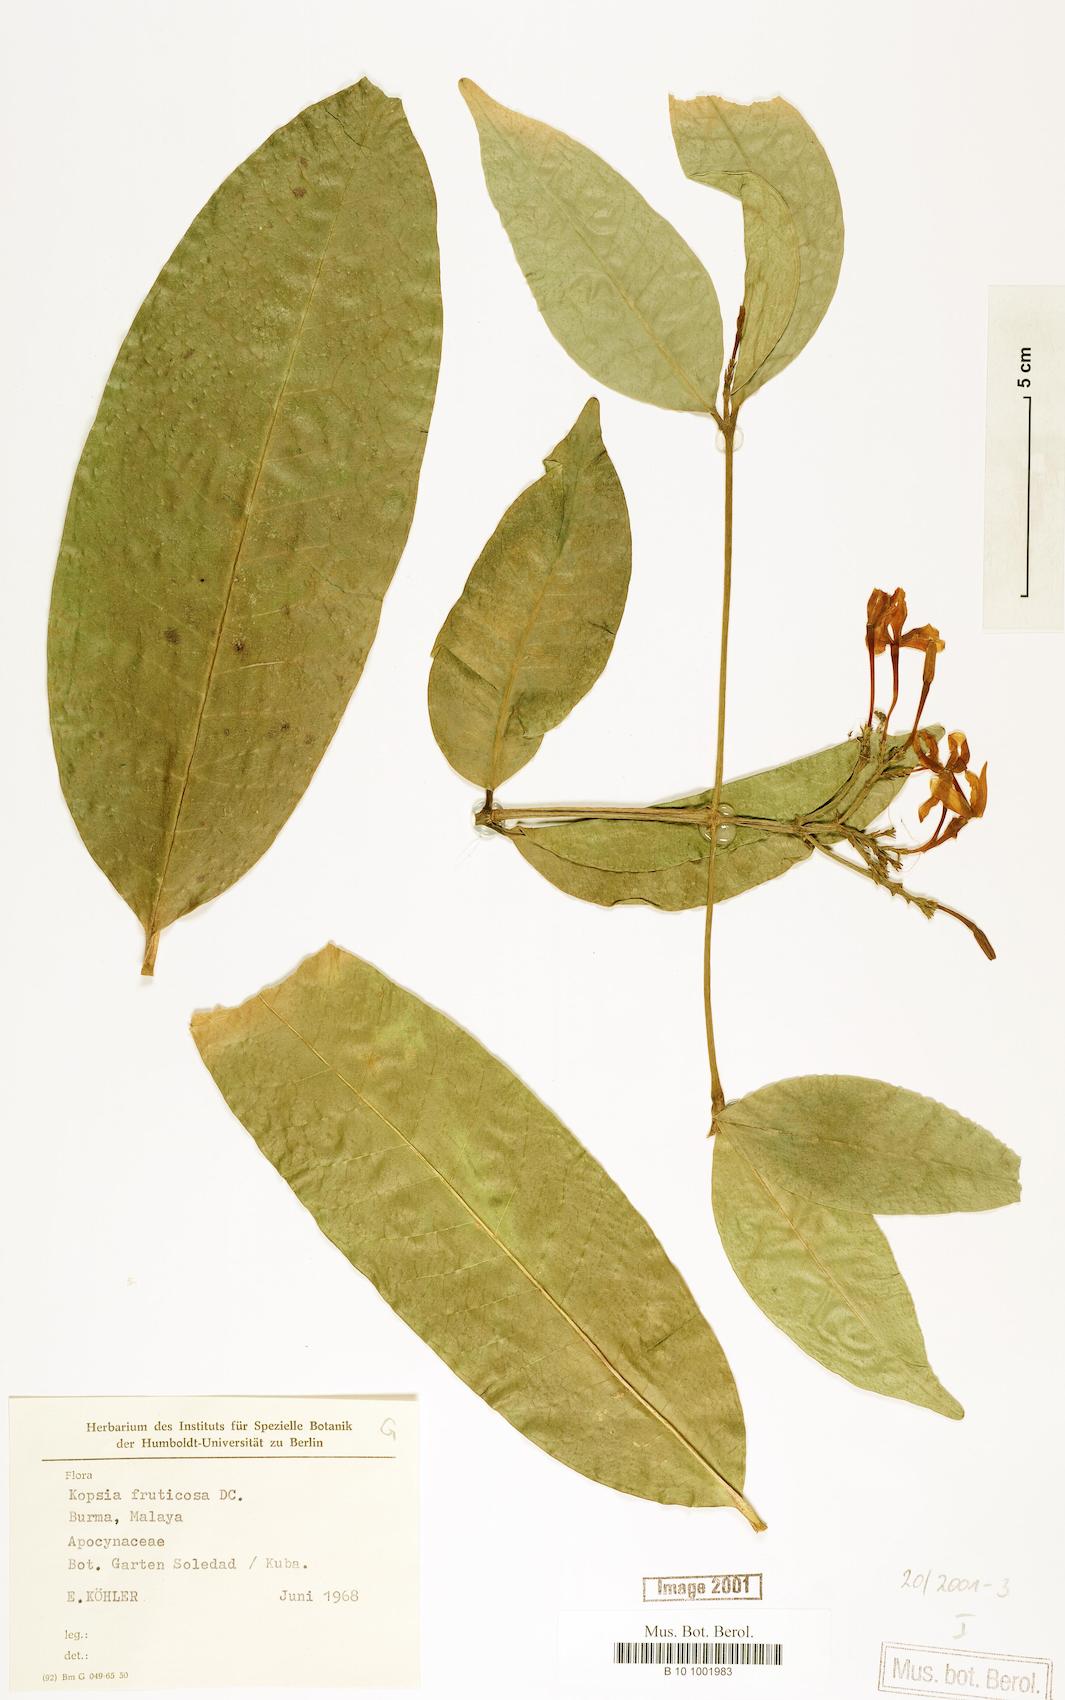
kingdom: Plantae
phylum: Tracheophyta
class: Magnoliopsida
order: Gentianales
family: Apocynaceae
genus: Kopsia
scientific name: Kopsia fruticosa
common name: Shrub-vinca
